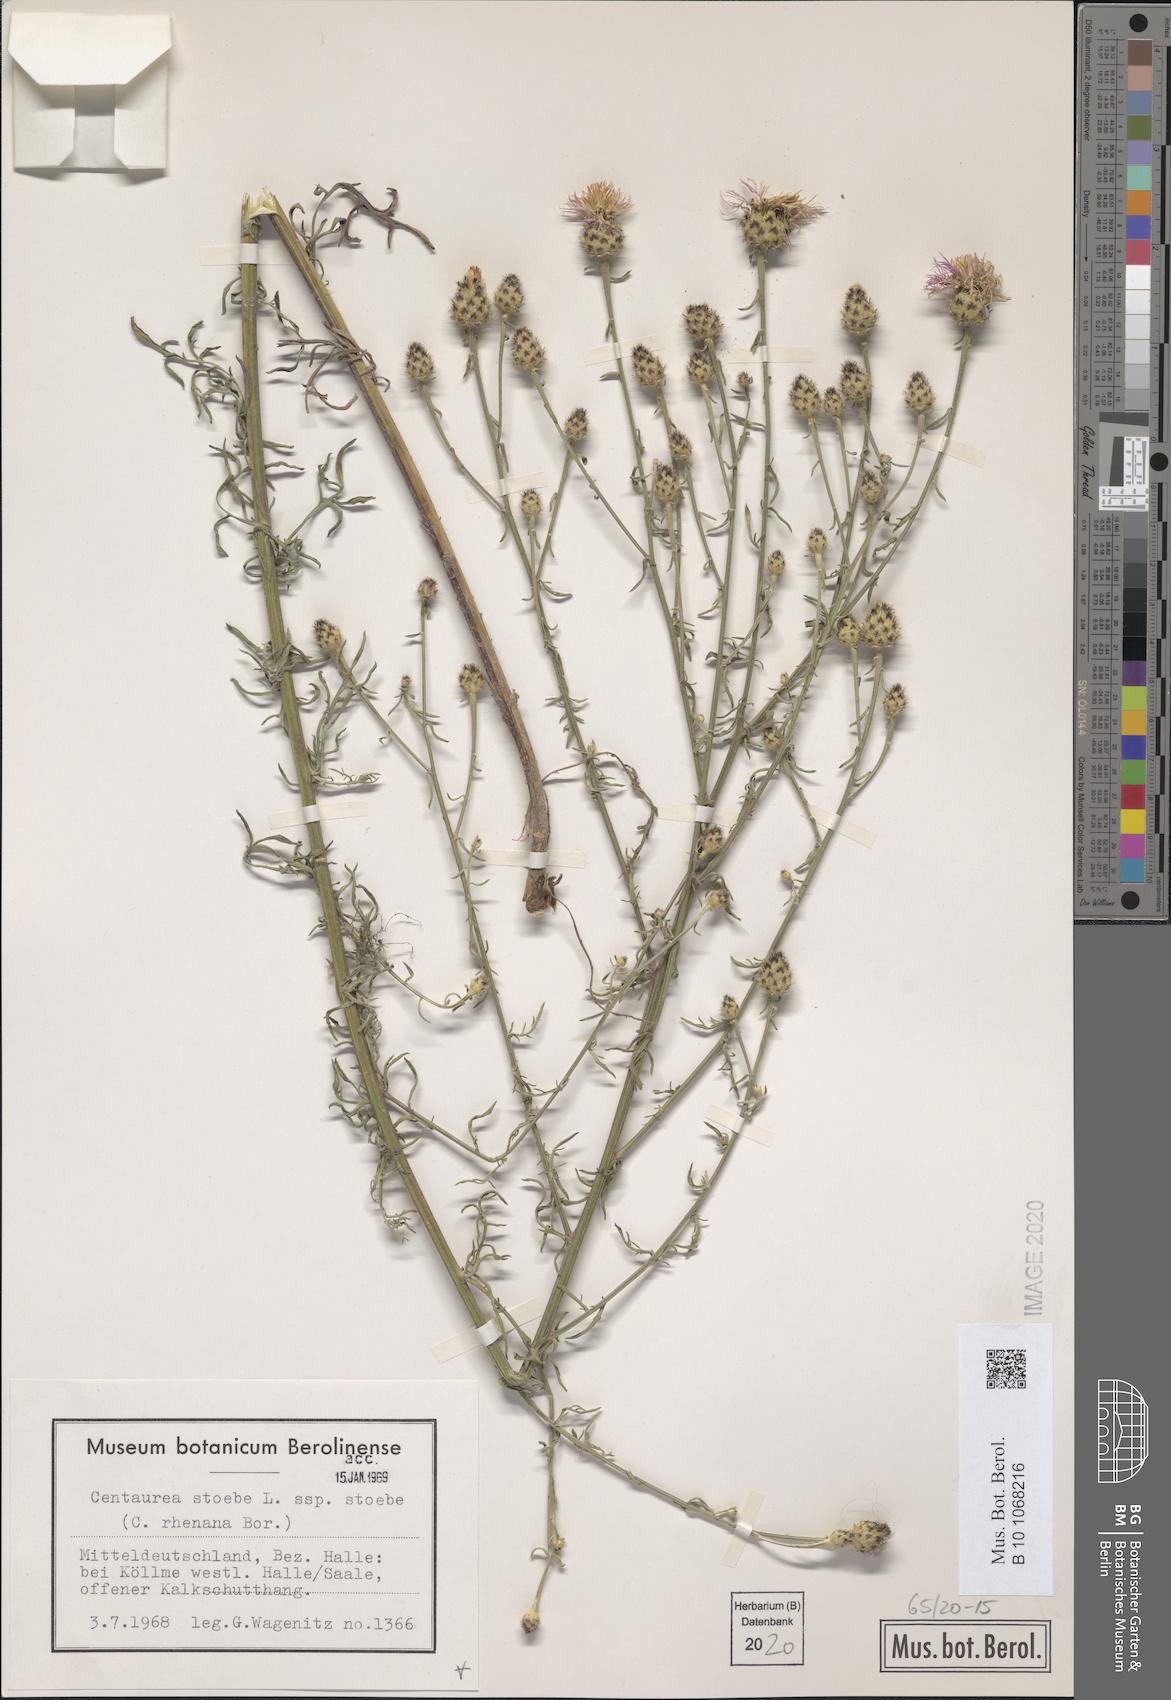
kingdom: Plantae
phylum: Tracheophyta
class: Magnoliopsida
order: Asterales
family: Asteraceae
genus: Centaurea
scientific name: Centaurea stoebe
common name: Spotted knapweed
